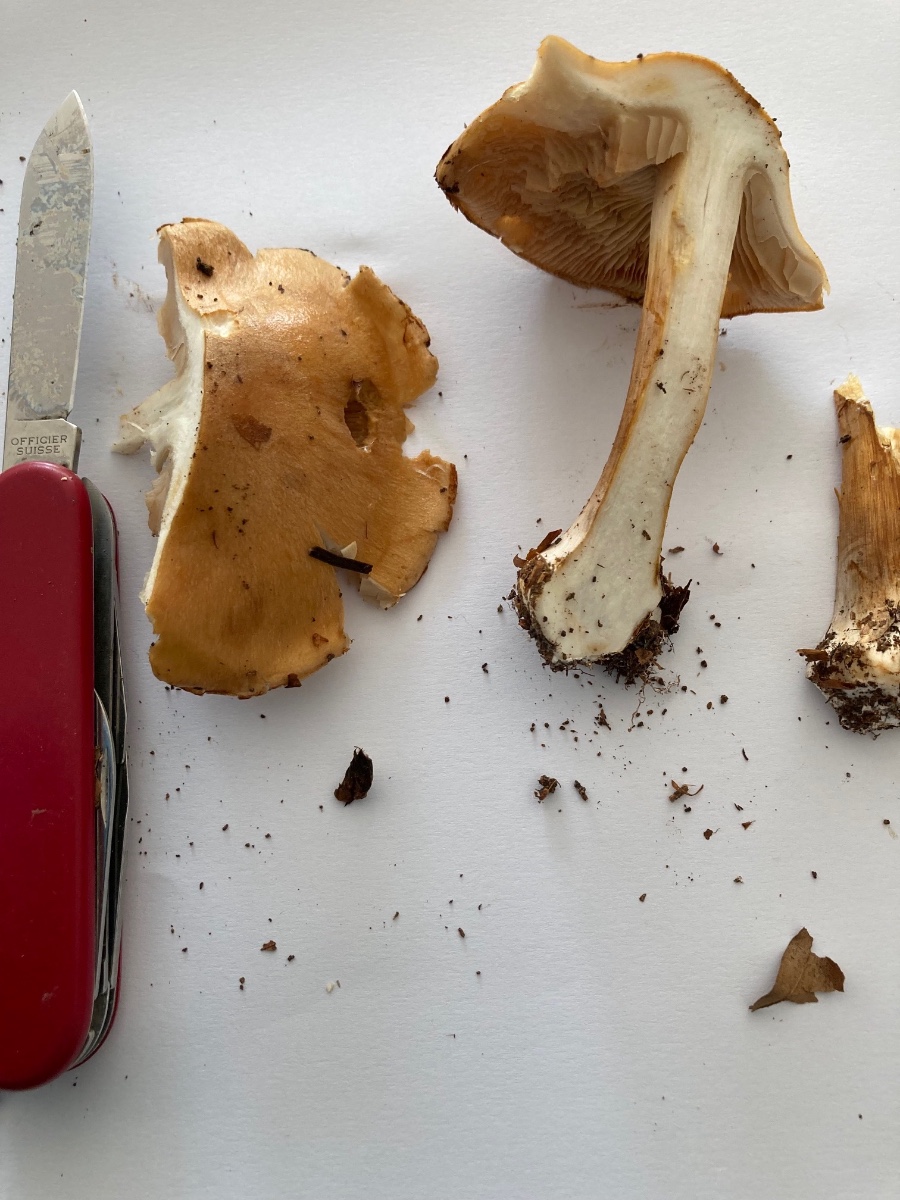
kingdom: Fungi
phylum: Basidiomycota
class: Agaricomycetes
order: Agaricales
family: Cortinariaceae
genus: Thaxterogaster
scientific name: Thaxterogaster talus
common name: knogle-slørhat
